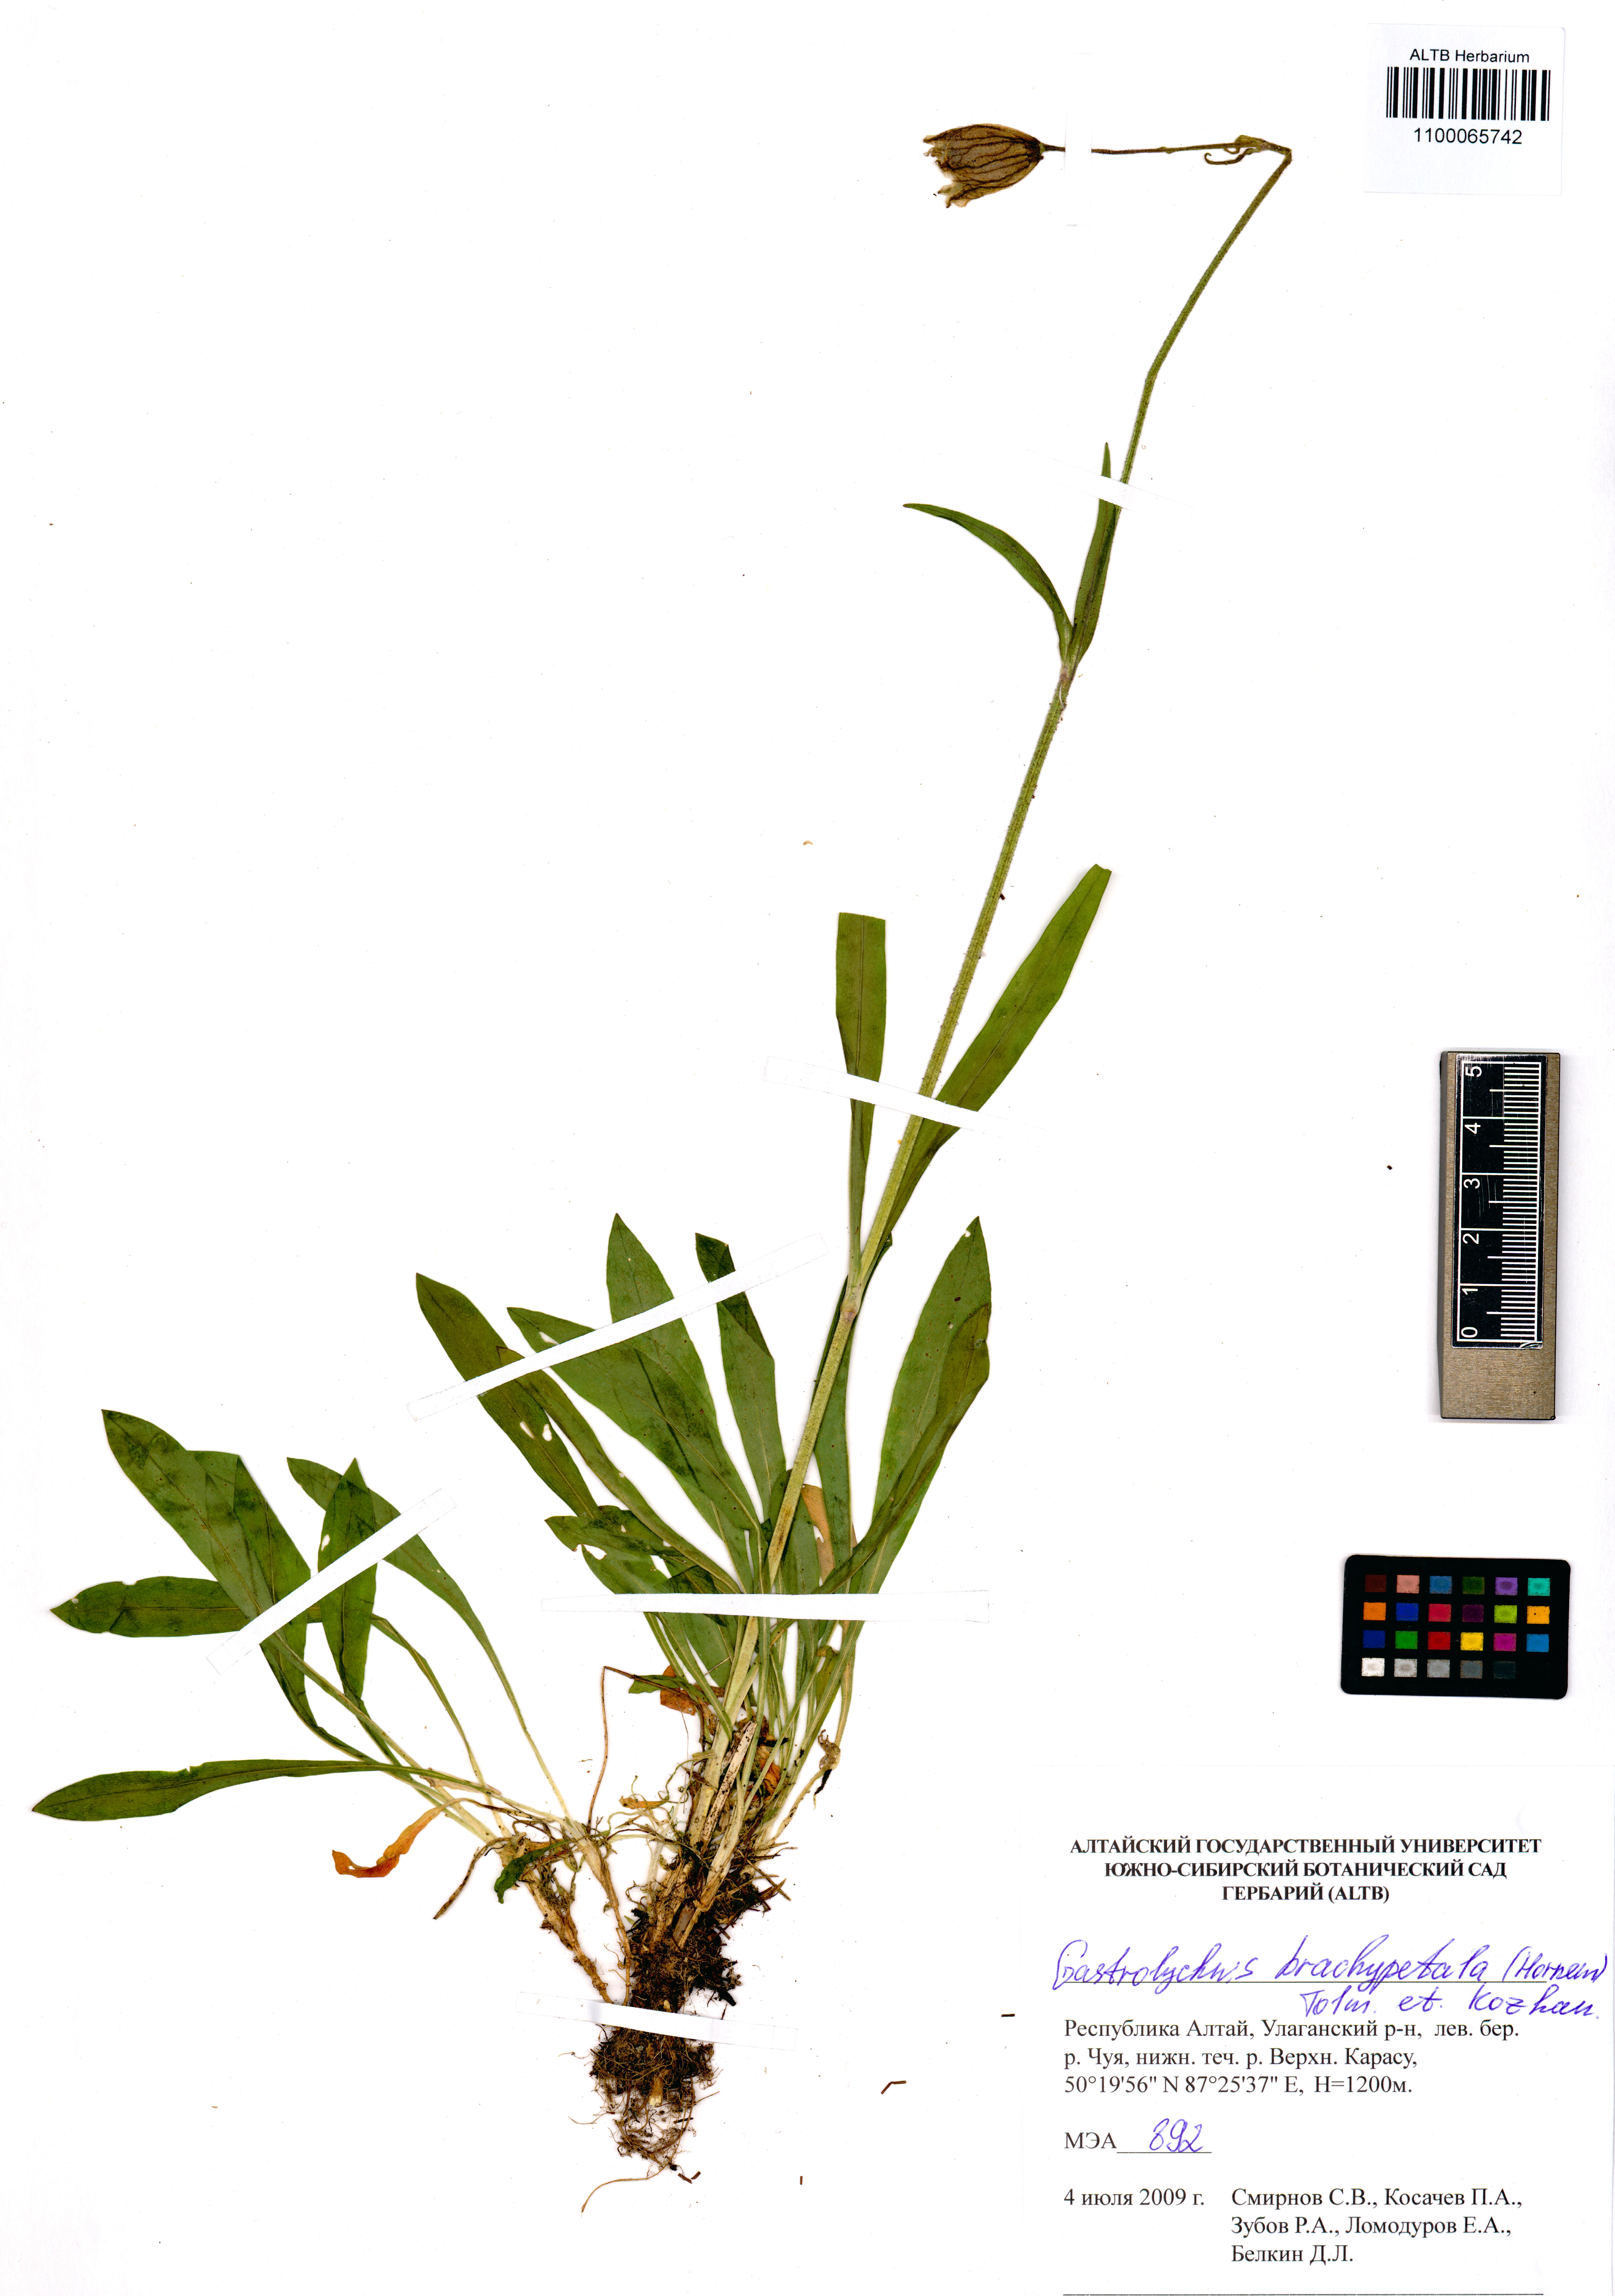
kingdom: Plantae
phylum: Tracheophyta
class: Magnoliopsida
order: Caryophyllales
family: Caryophyllaceae
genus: Silene
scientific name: Silene songarica
